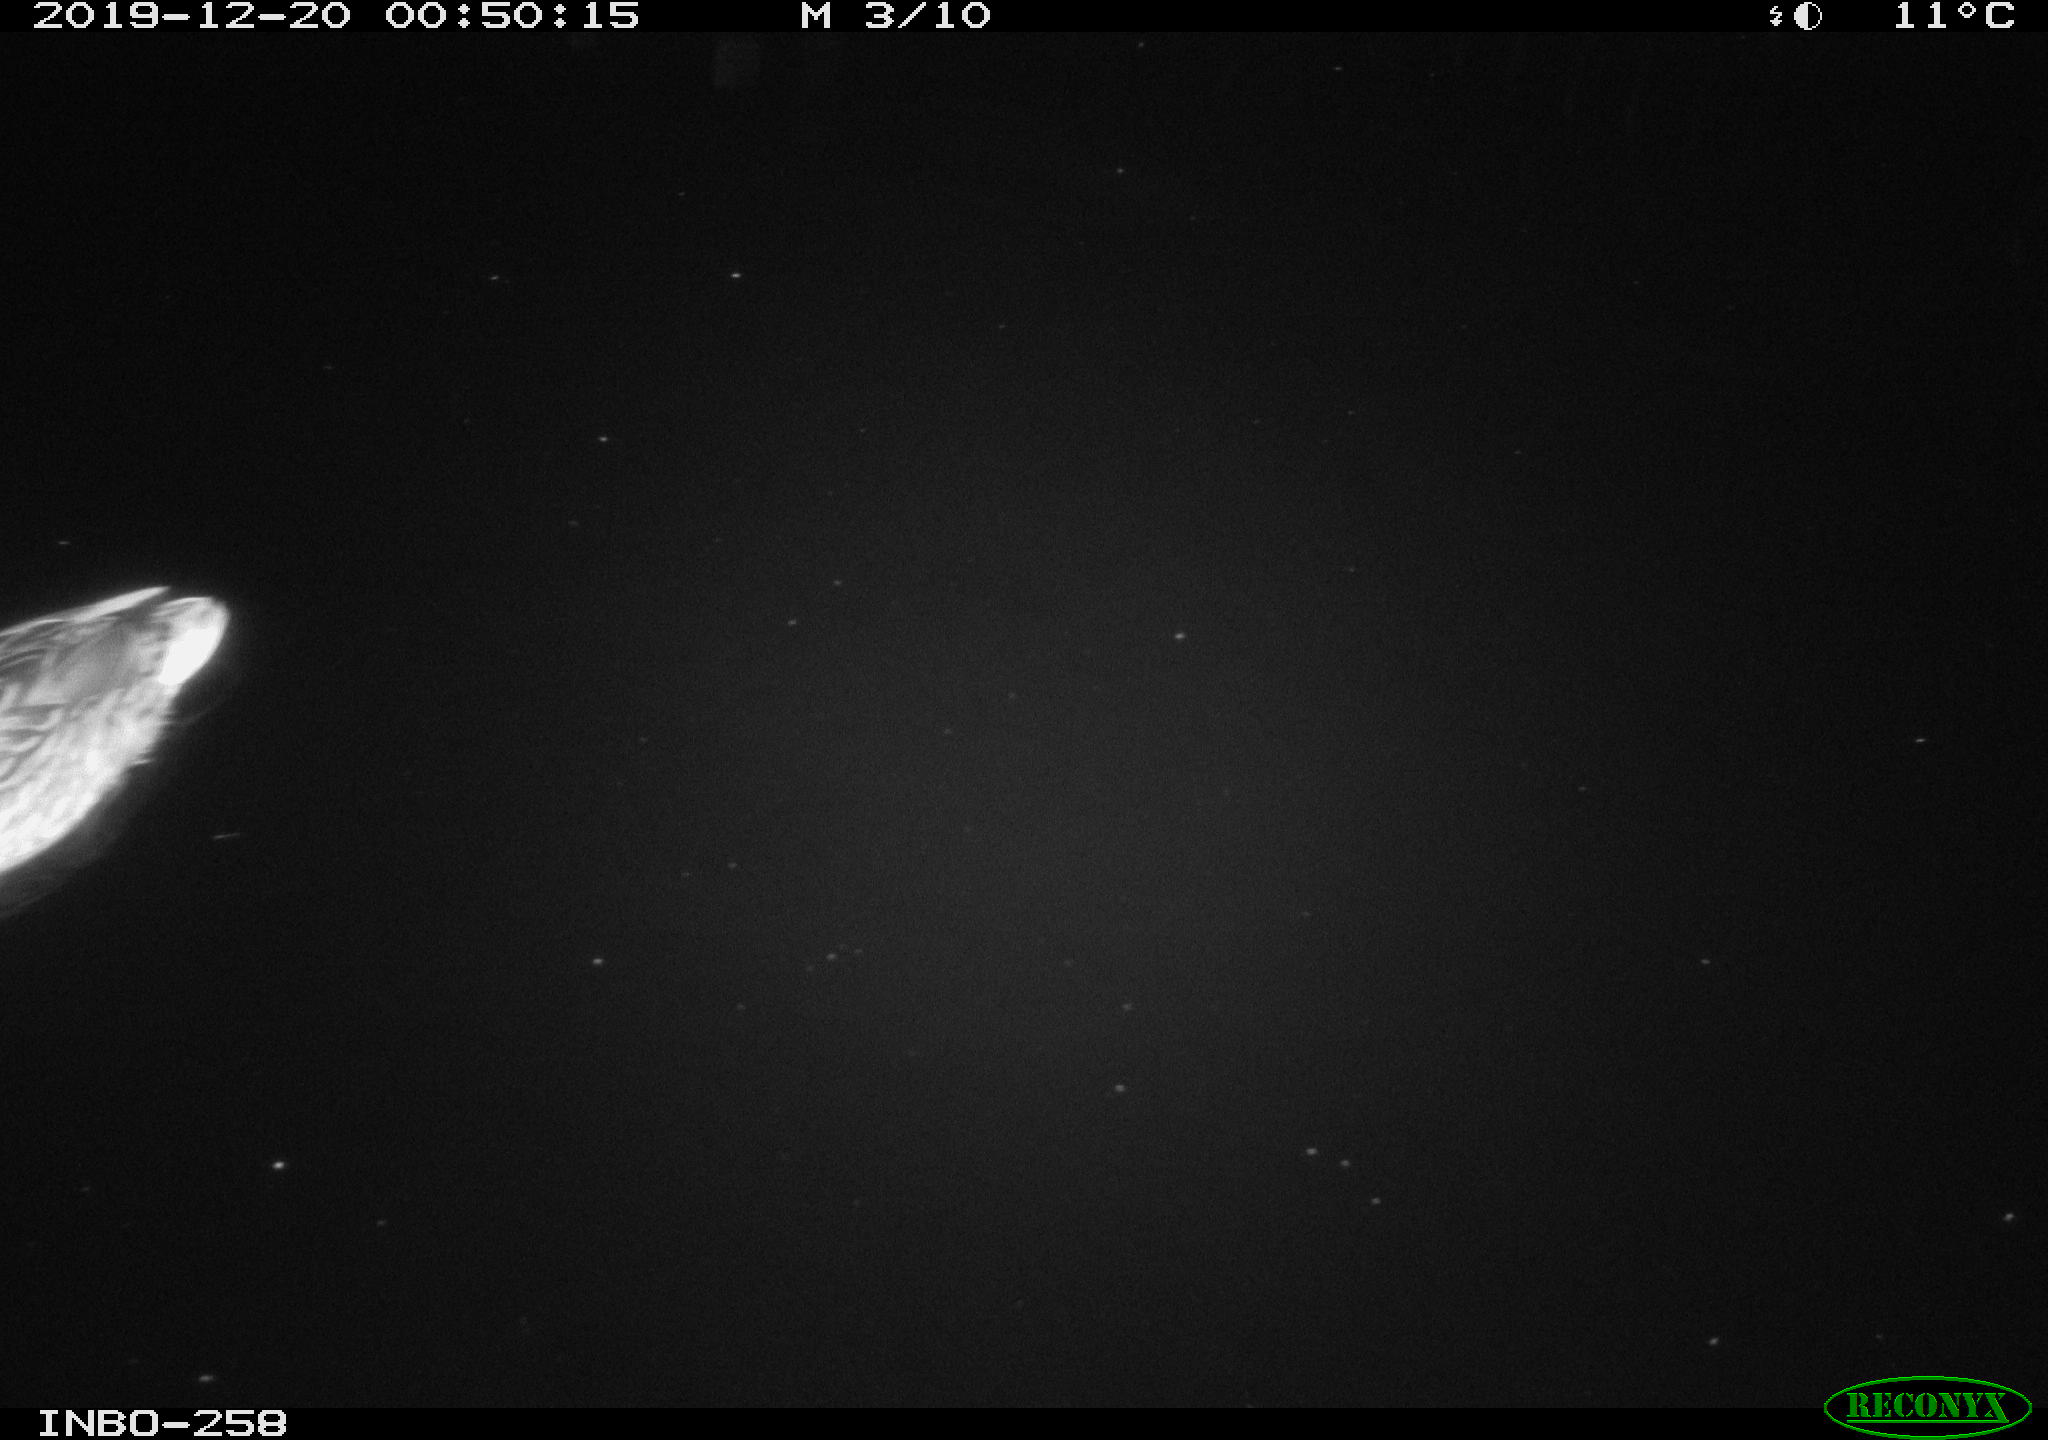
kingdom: Animalia
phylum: Chordata
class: Aves
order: Anseriformes
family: Anatidae
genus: Anas
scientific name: Anas platyrhynchos
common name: Mallard
